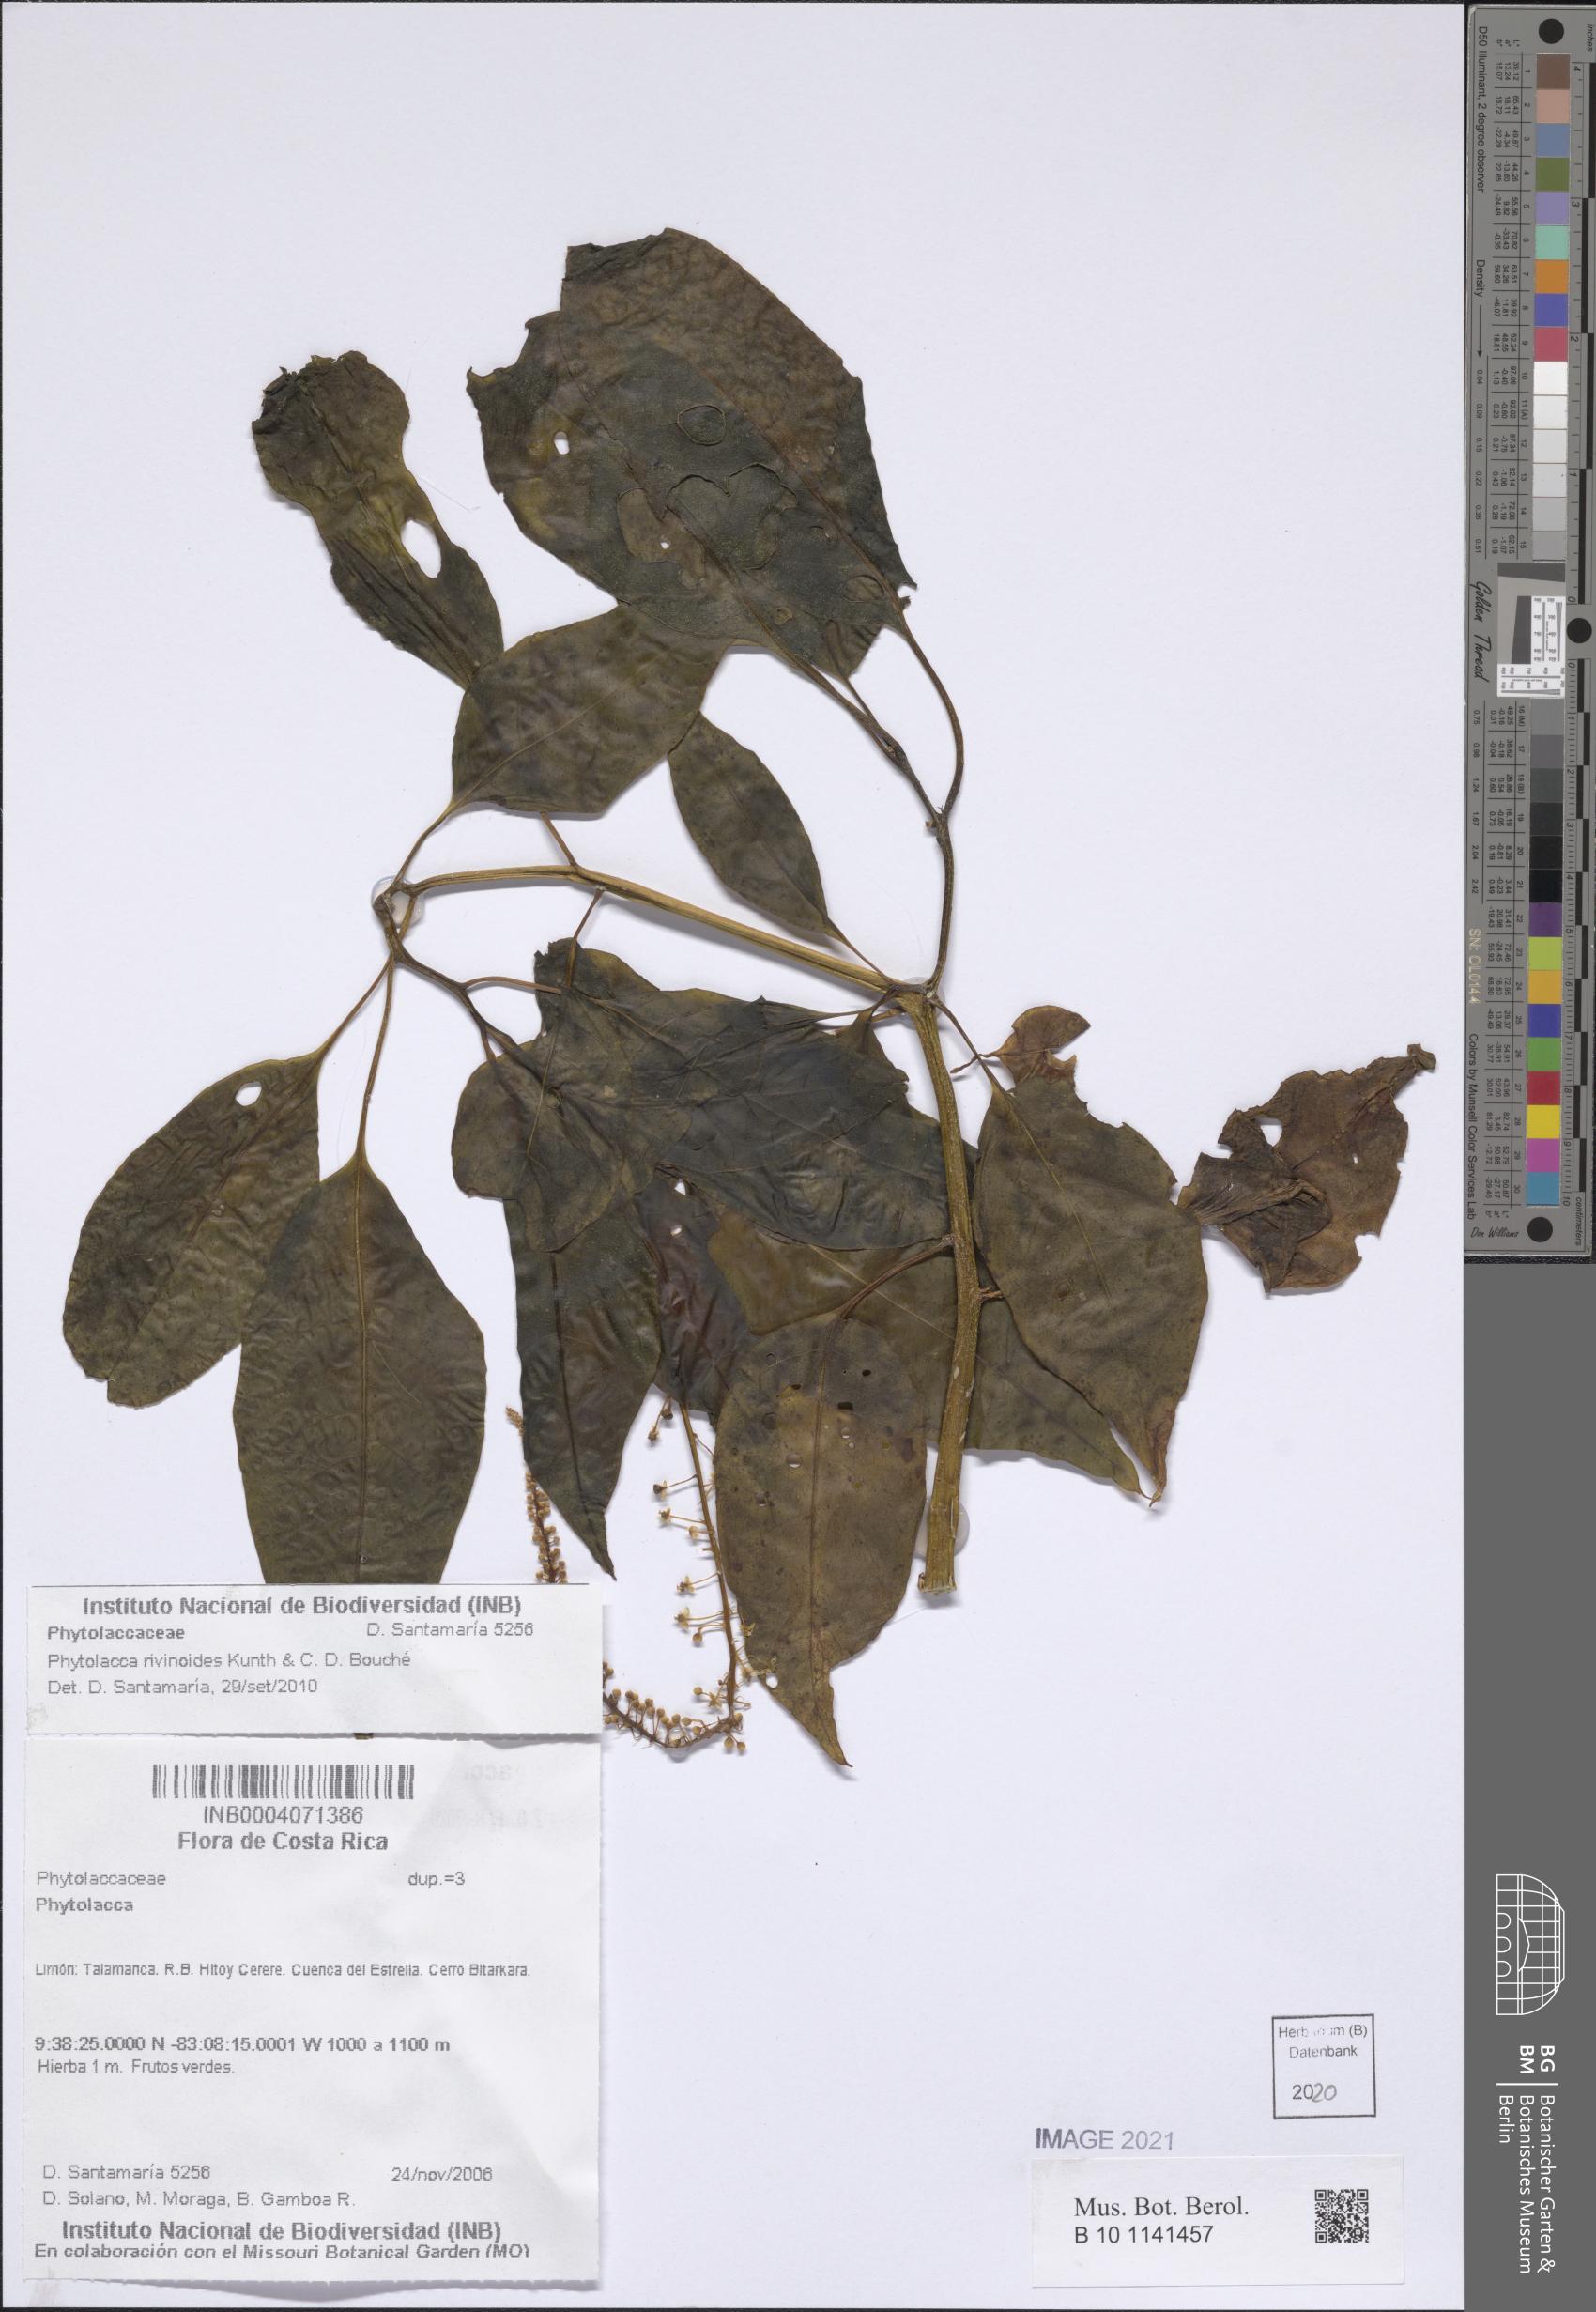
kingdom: Plantae
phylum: Tracheophyta
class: Magnoliopsida
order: Caryophyllales
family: Phytolaccaceae
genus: Phytolacca
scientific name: Phytolacca rivinoides
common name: Venezuelan pokeweed
